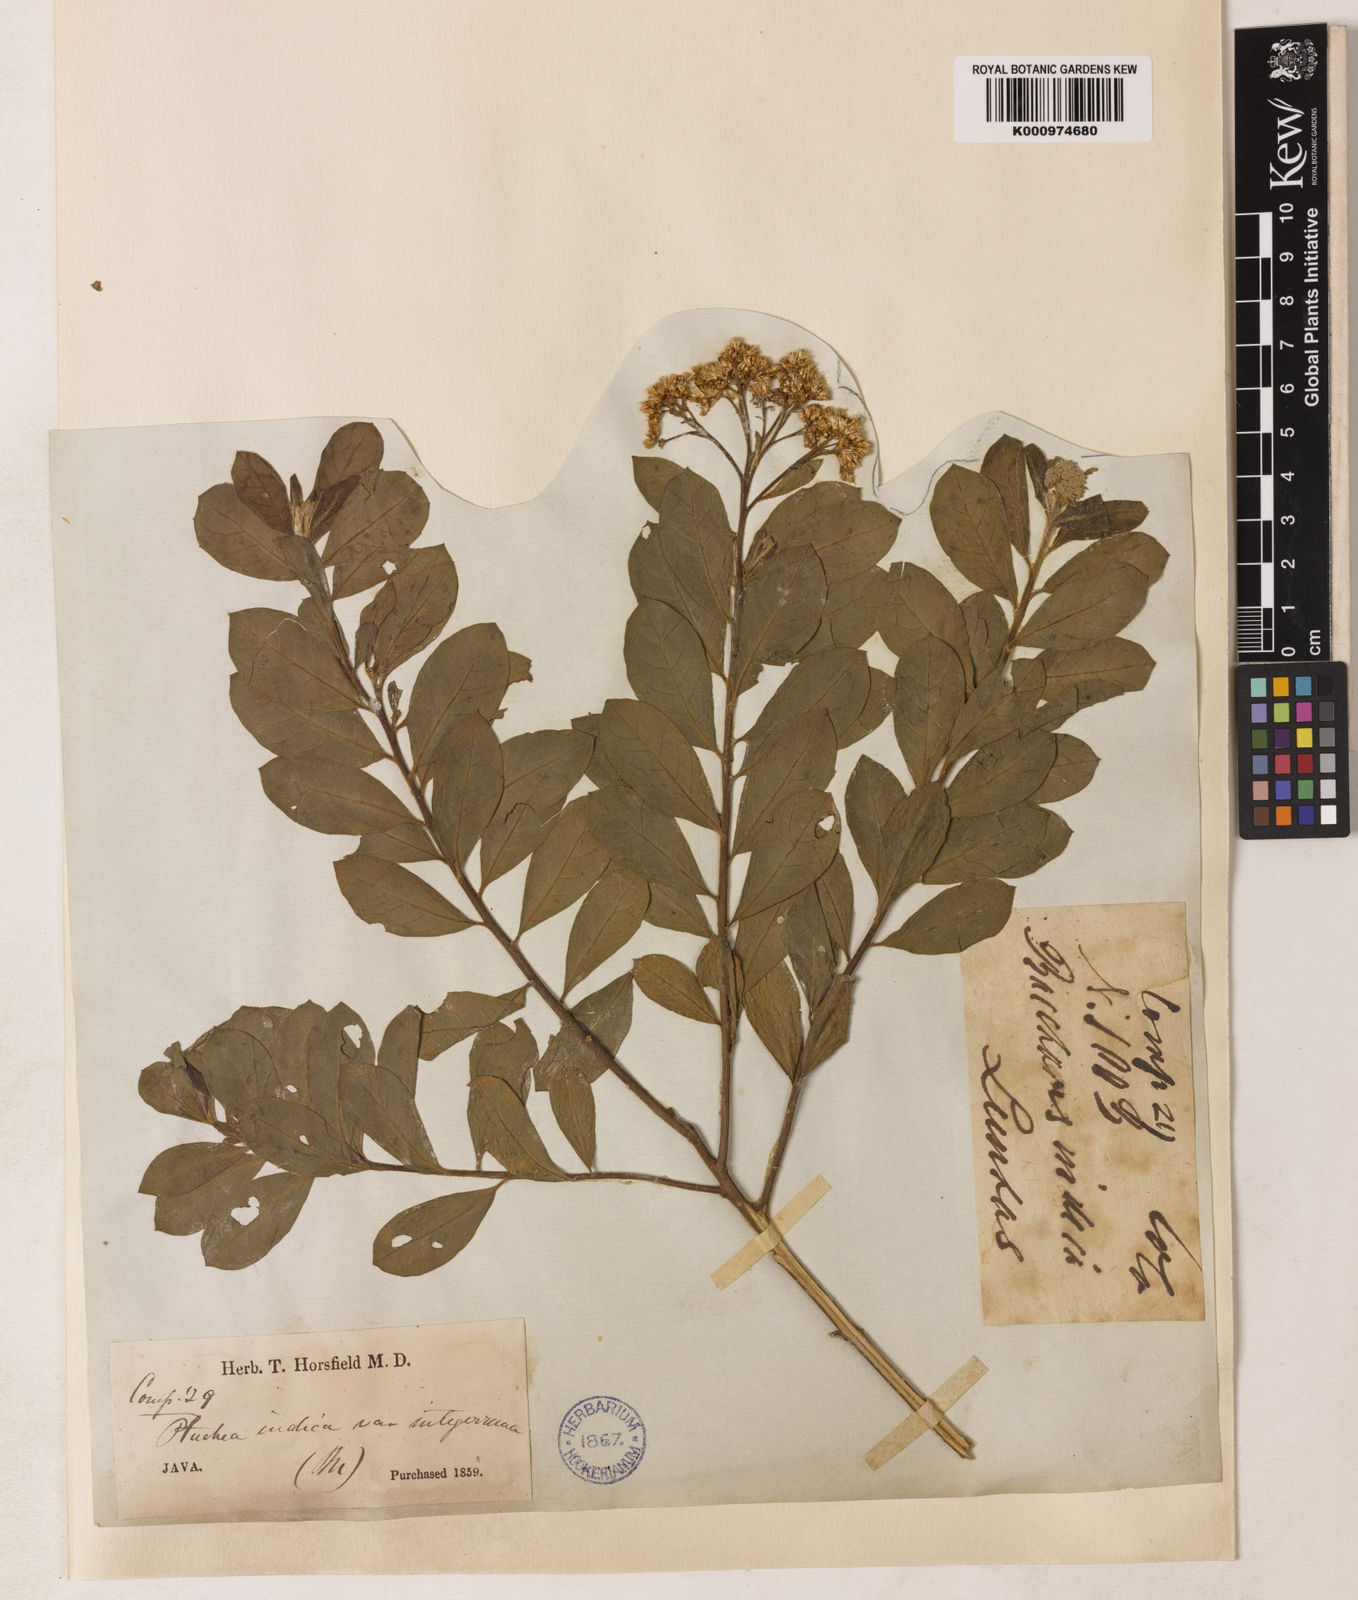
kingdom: Plantae
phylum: Tracheophyta
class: Magnoliopsida
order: Asterales
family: Asteraceae
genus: Pluchea
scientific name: Pluchea indica
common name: Indian fleabane
